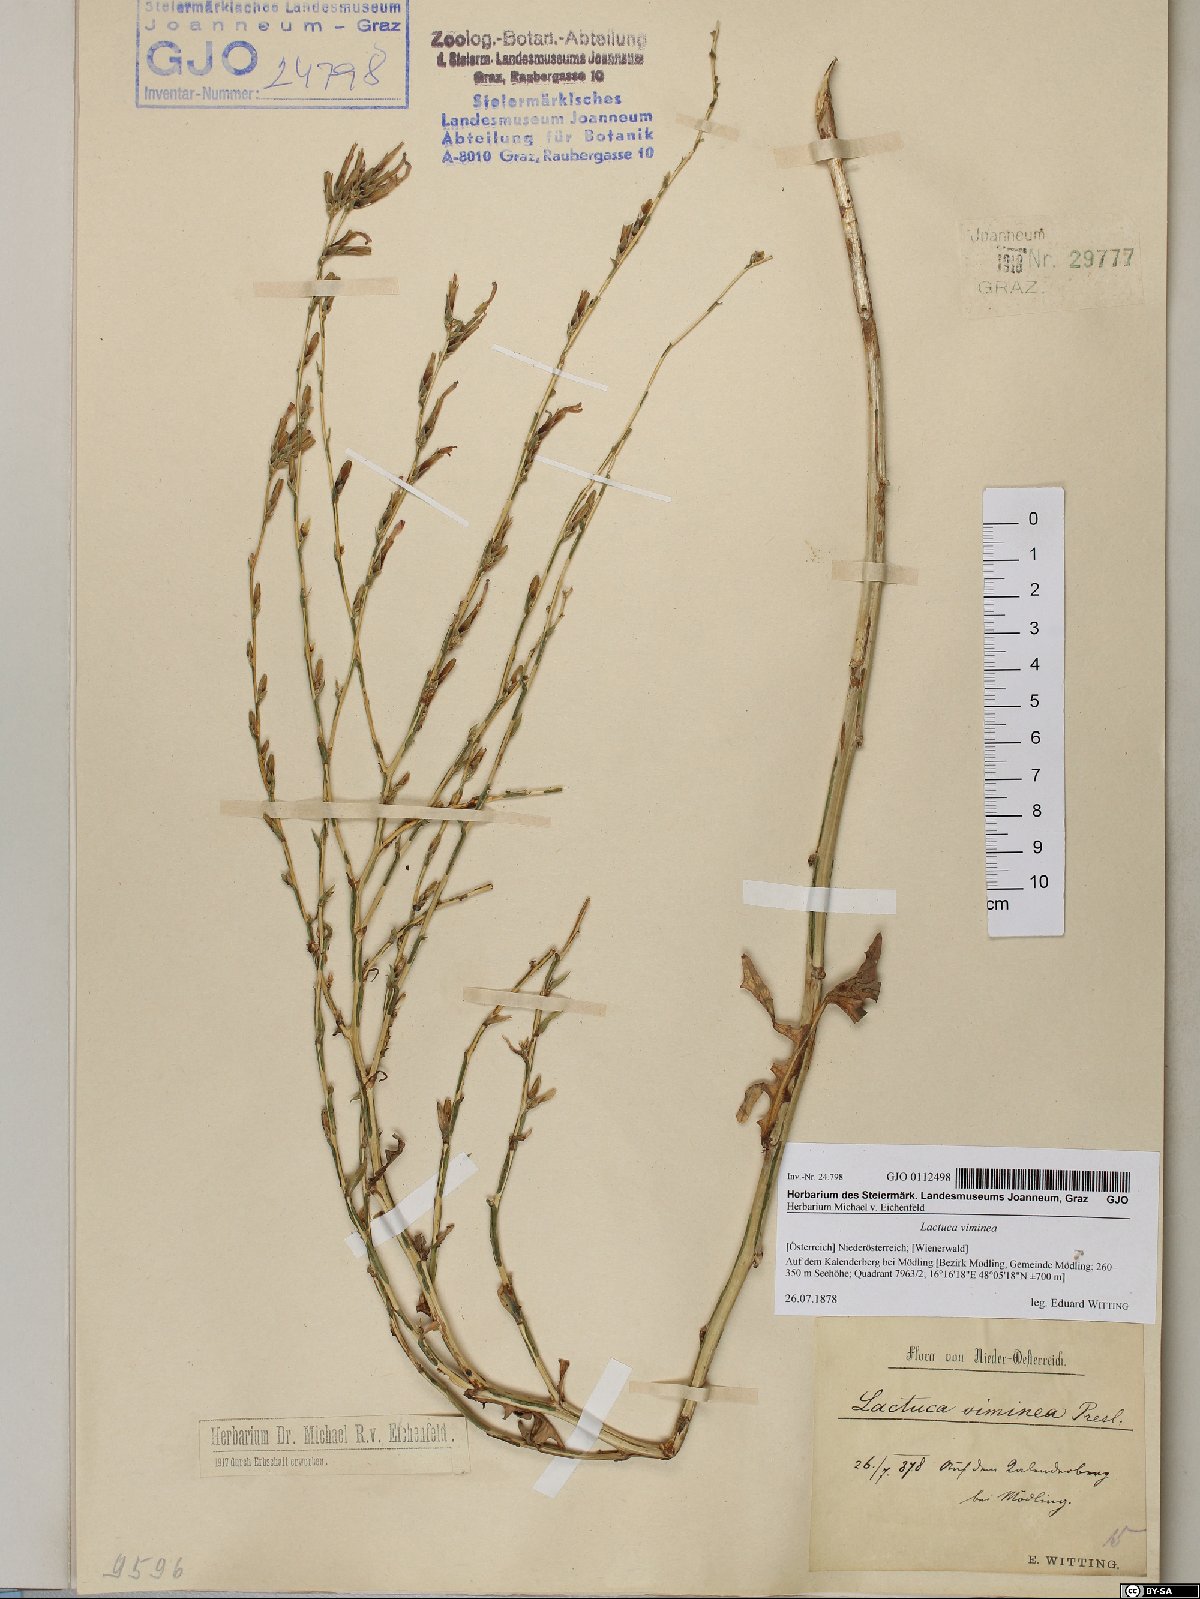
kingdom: Plantae
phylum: Tracheophyta
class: Magnoliopsida
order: Asterales
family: Asteraceae
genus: Lactuca
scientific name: Lactuca viminea
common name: Pliant lettuce
